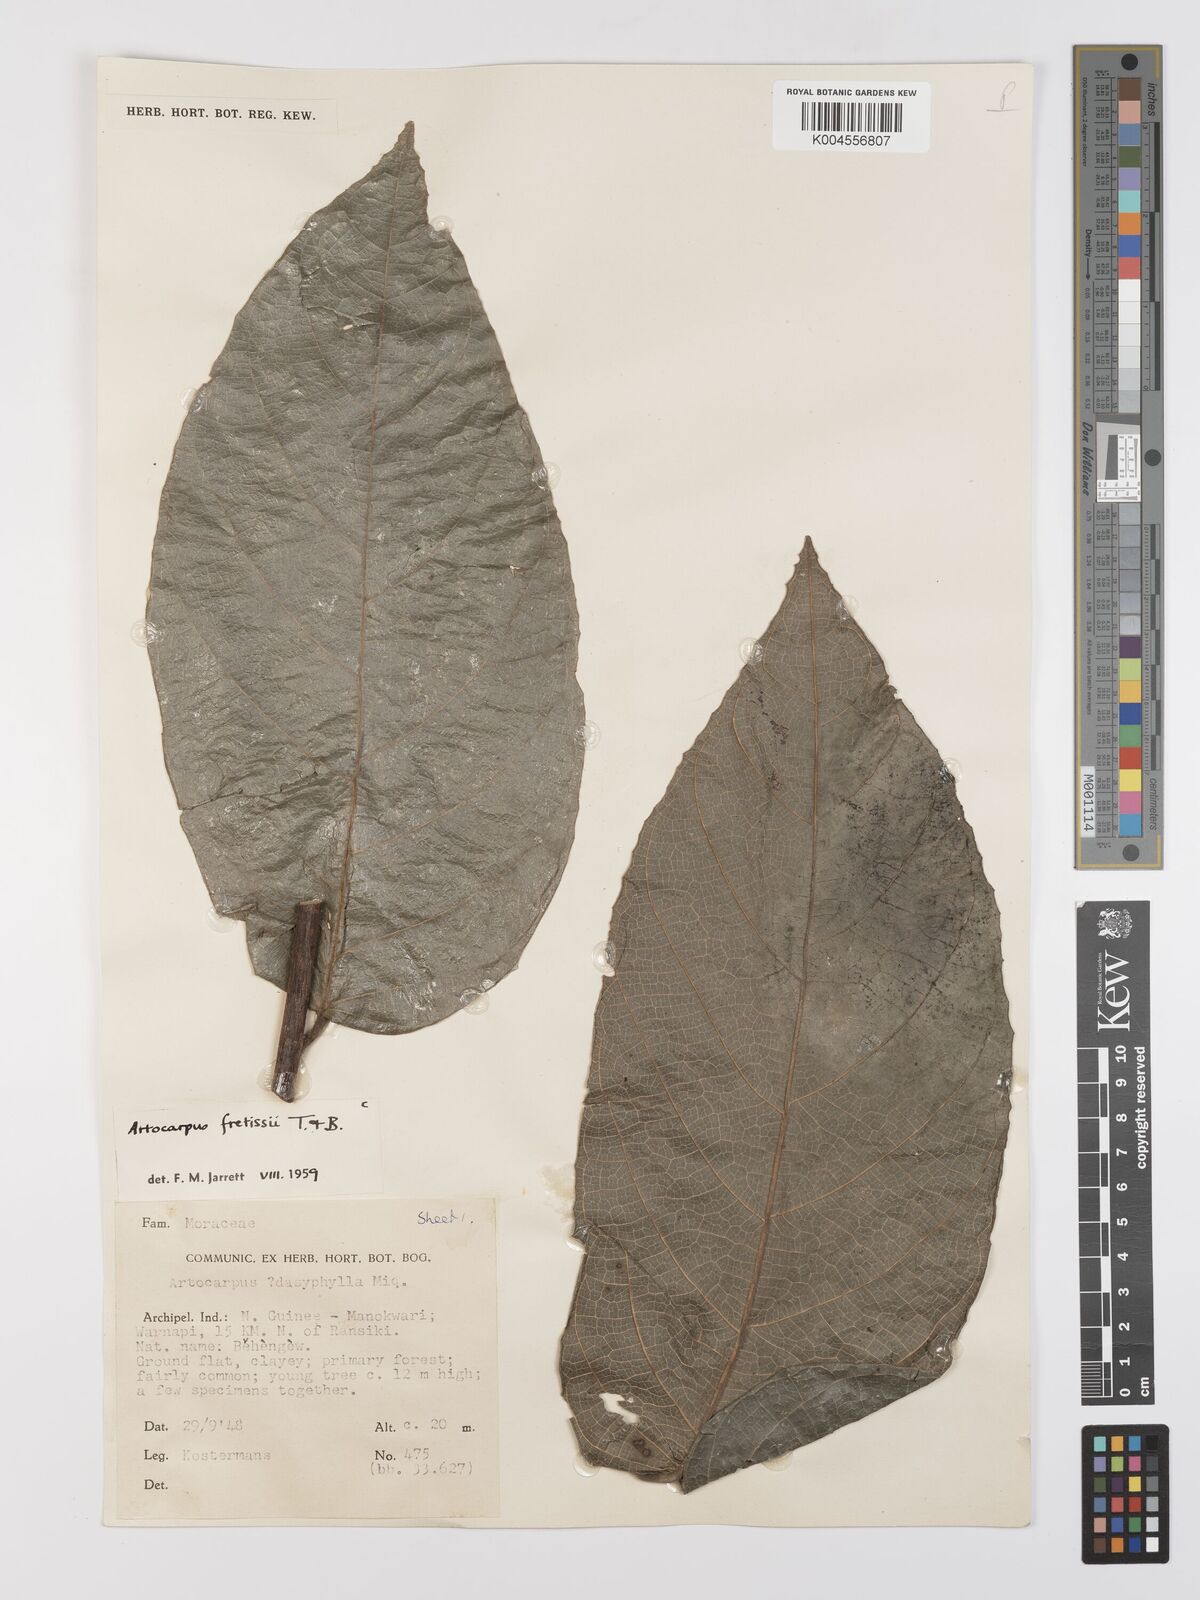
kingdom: Plantae
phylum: Tracheophyta
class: Magnoliopsida
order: Rosales
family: Moraceae
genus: Artocarpus
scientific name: Artocarpus lacucha
